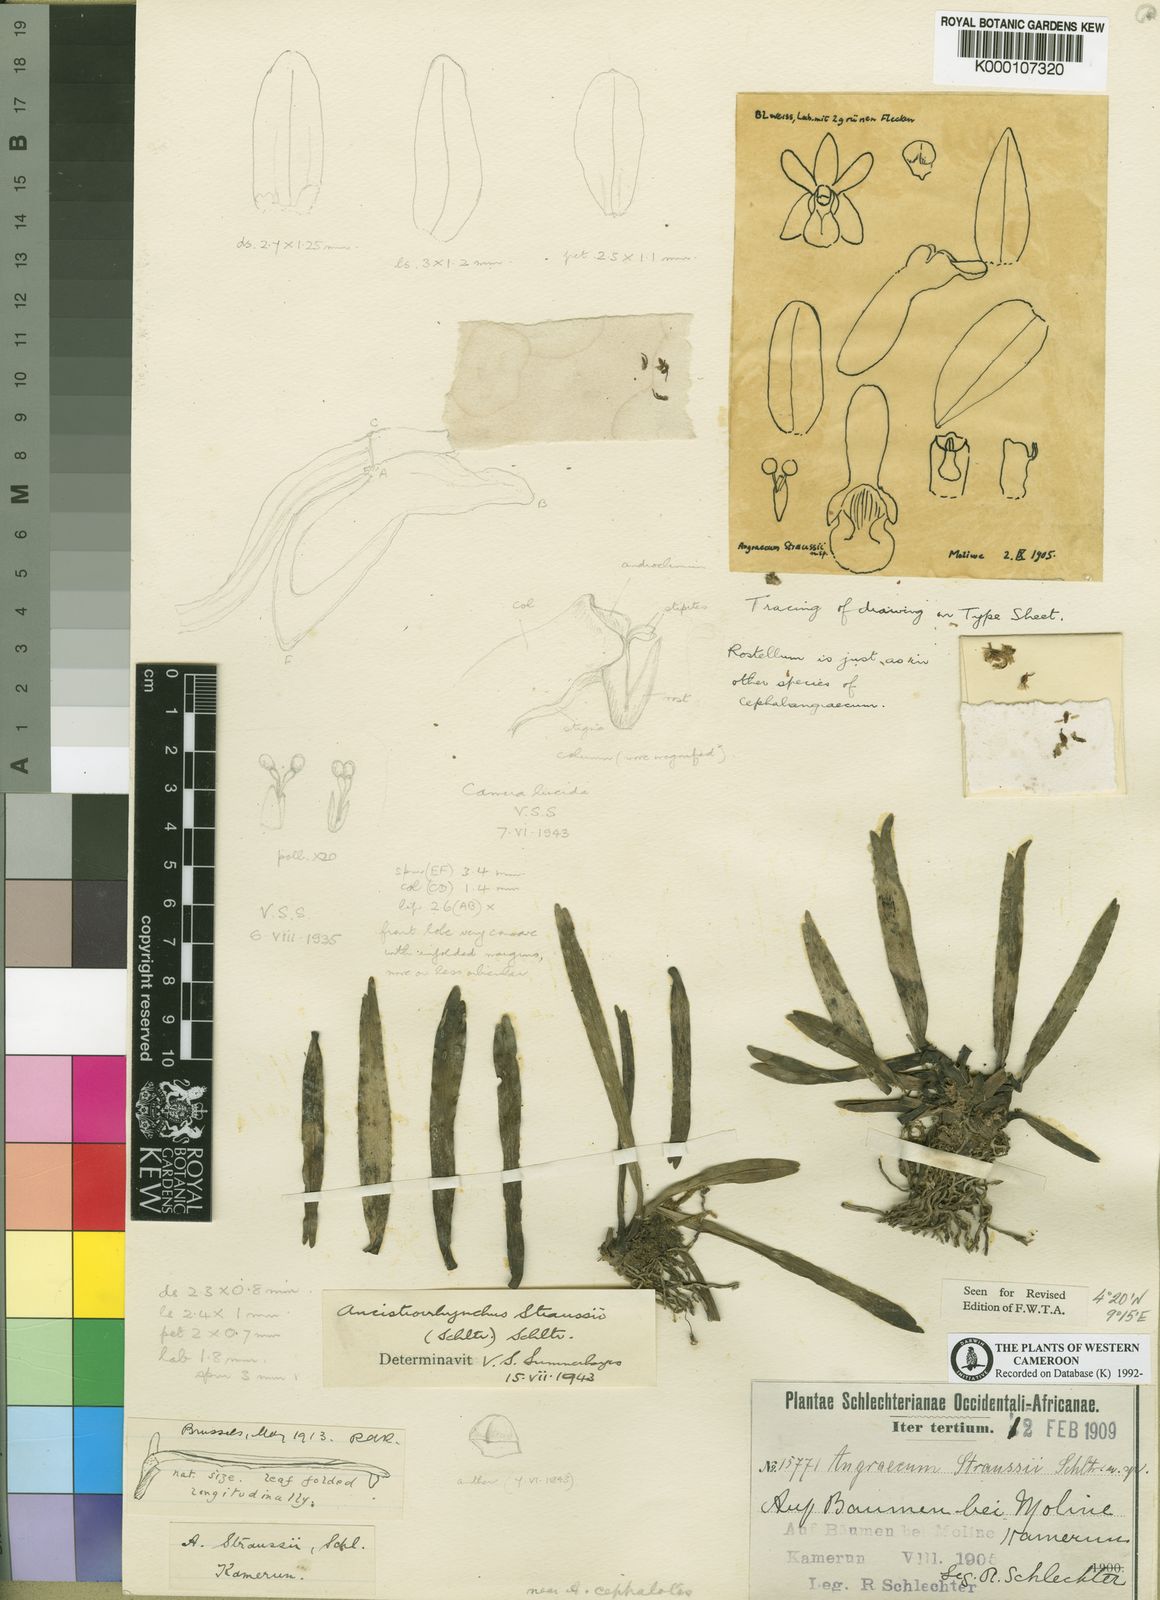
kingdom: Plantae
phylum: Tracheophyta
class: Liliopsida
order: Asparagales
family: Orchidaceae
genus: Ancistrorhynchus
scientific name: Ancistrorhynchus straussii
